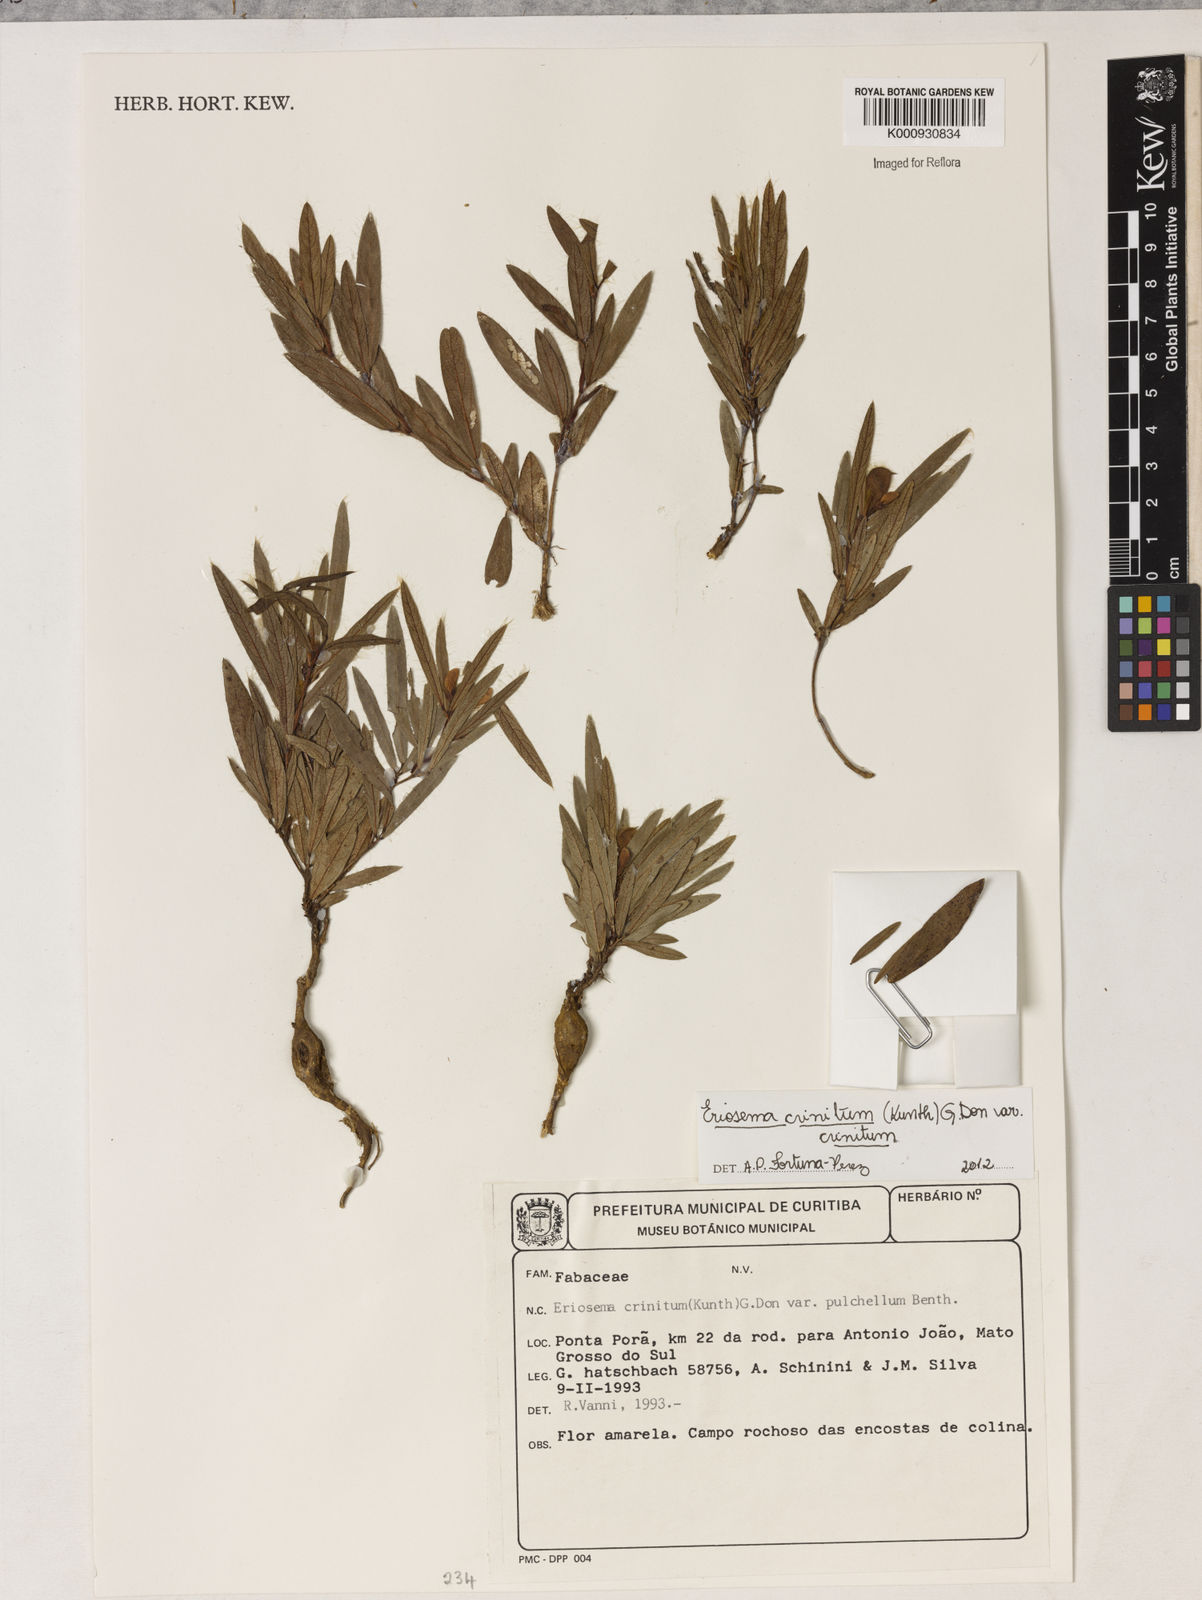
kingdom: Plantae
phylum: Tracheophyta
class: Magnoliopsida
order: Fabales
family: Fabaceae
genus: Eriosema
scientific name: Eriosema crinitum
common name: Sand pea
